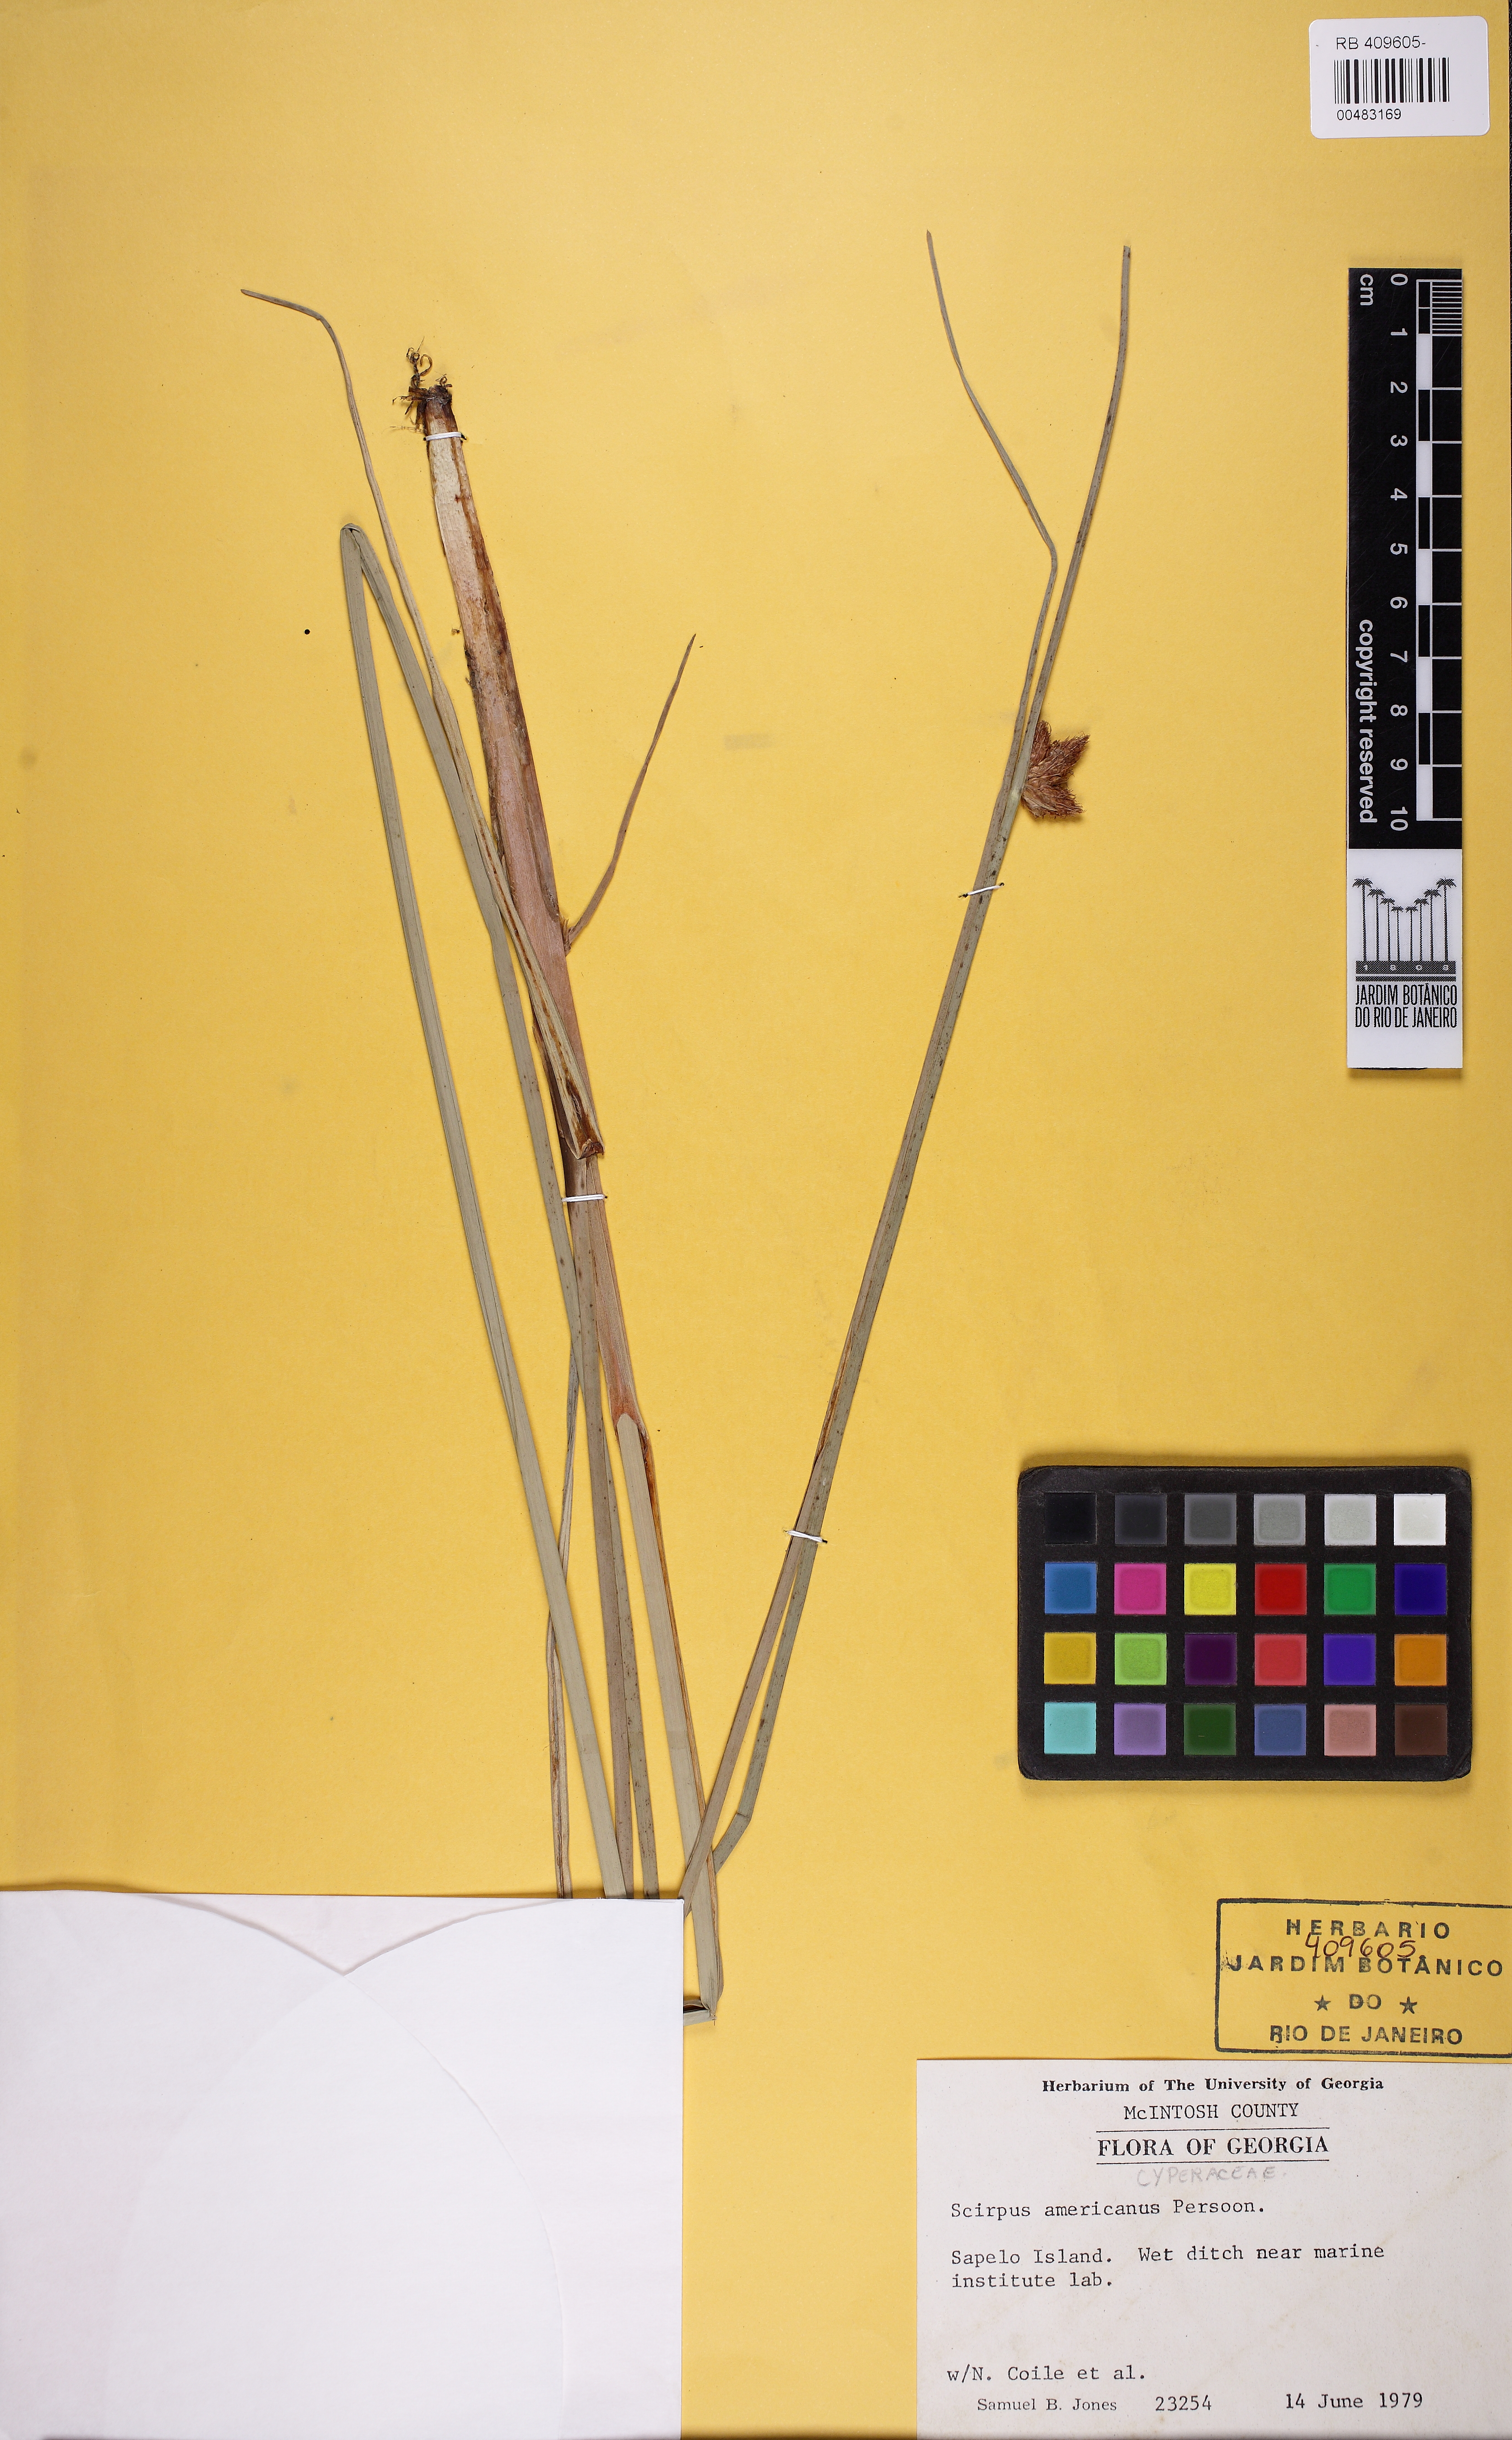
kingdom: Plantae
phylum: Tracheophyta
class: Liliopsida
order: Poales
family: Cyperaceae
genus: Schoenoplectus
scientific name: Schoenoplectus americanus
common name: American three-square bulrush
